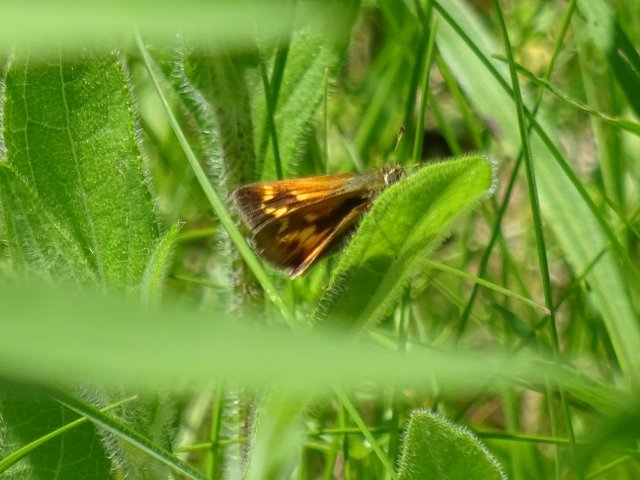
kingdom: Animalia
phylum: Arthropoda
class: Insecta
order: Lepidoptera
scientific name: Lepidoptera
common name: Butterflies
